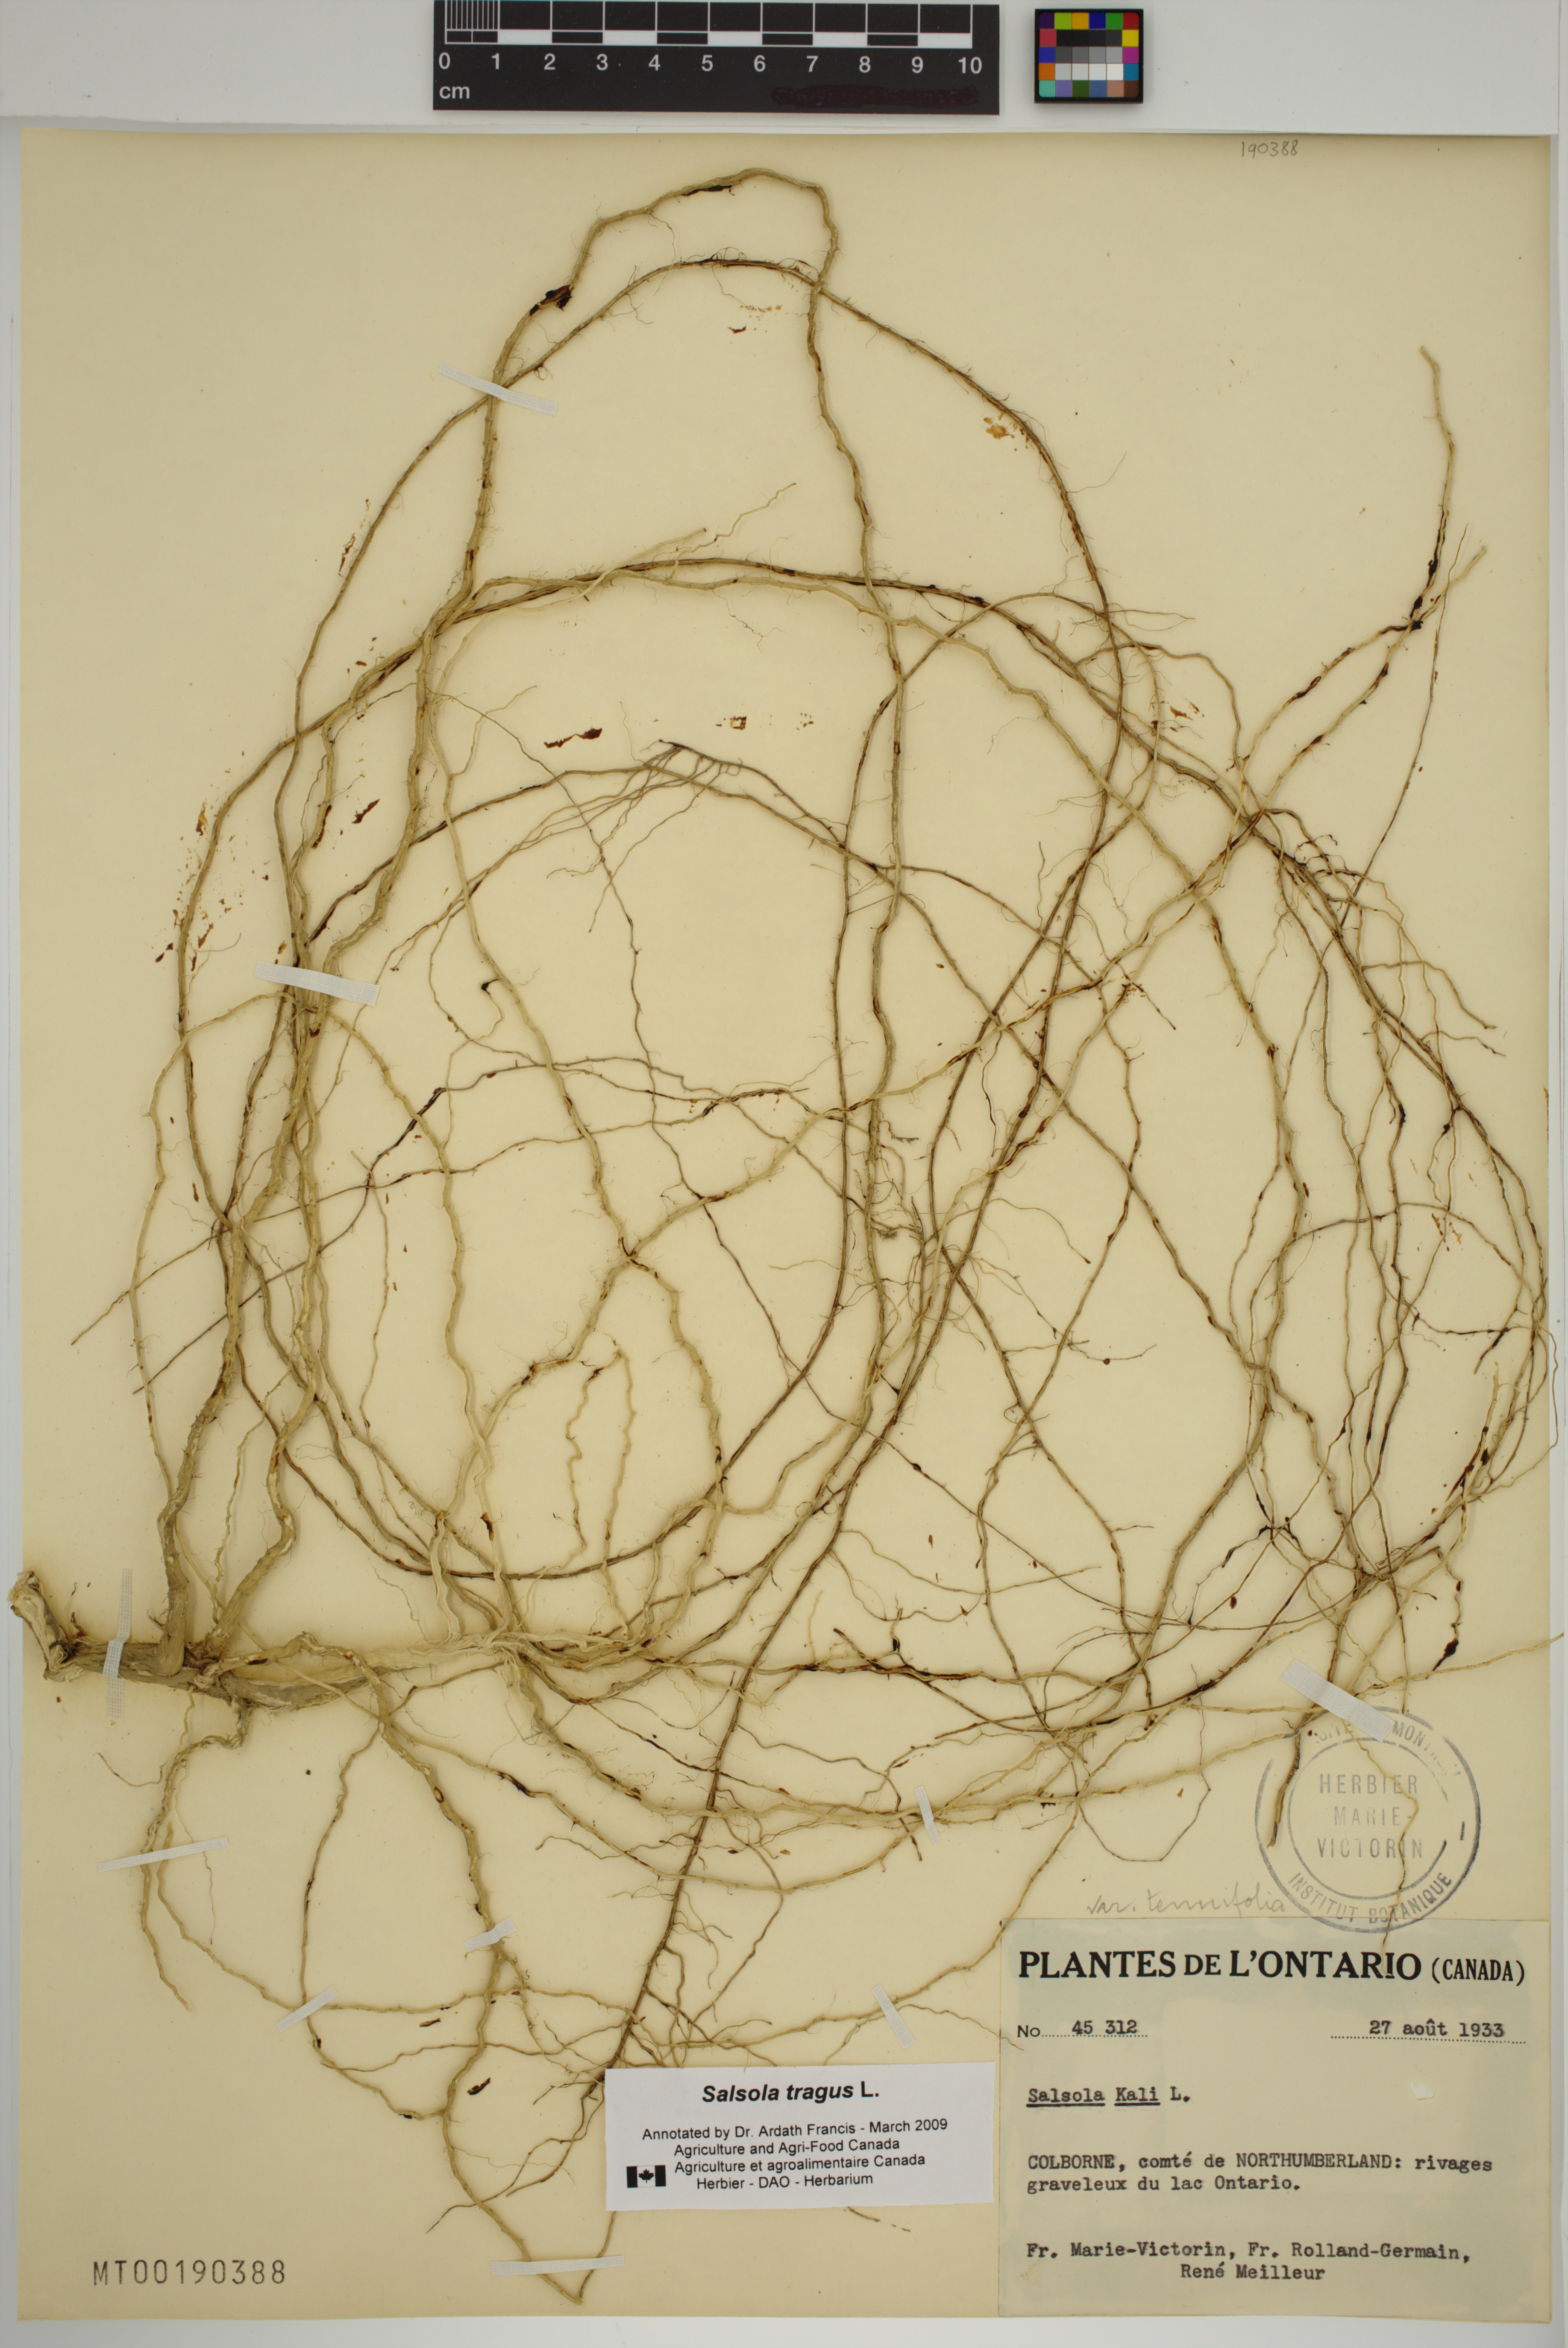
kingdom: Plantae
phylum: Tracheophyta
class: Magnoliopsida
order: Caryophyllales
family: Amaranthaceae
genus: Salsola
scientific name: Salsola tragus
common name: Prickly russian thistle
